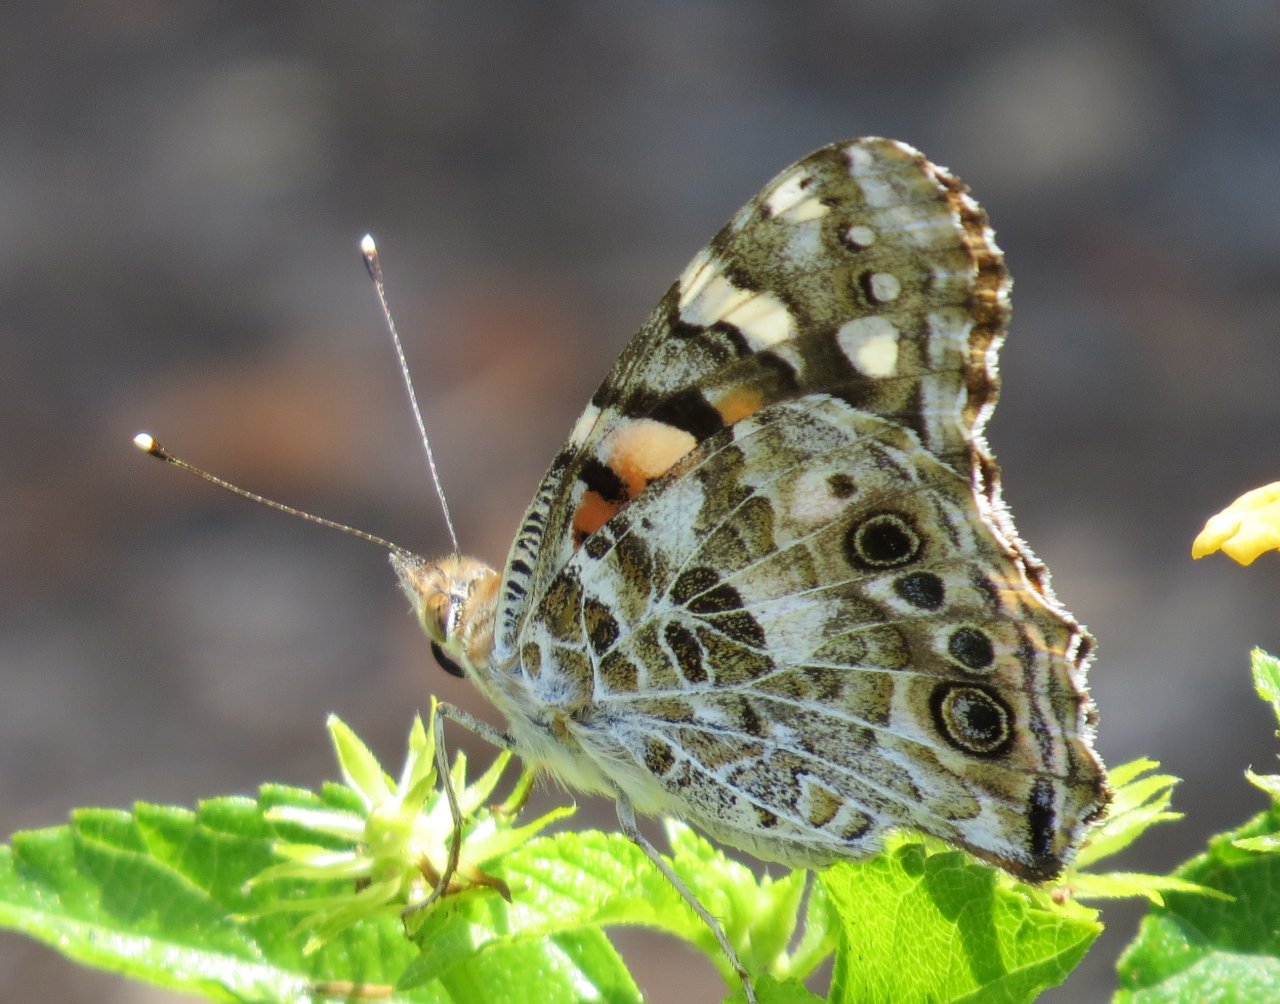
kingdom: Animalia
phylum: Arthropoda
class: Insecta
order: Lepidoptera
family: Nymphalidae
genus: Vanessa
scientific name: Vanessa cardui
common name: Painted Lady
